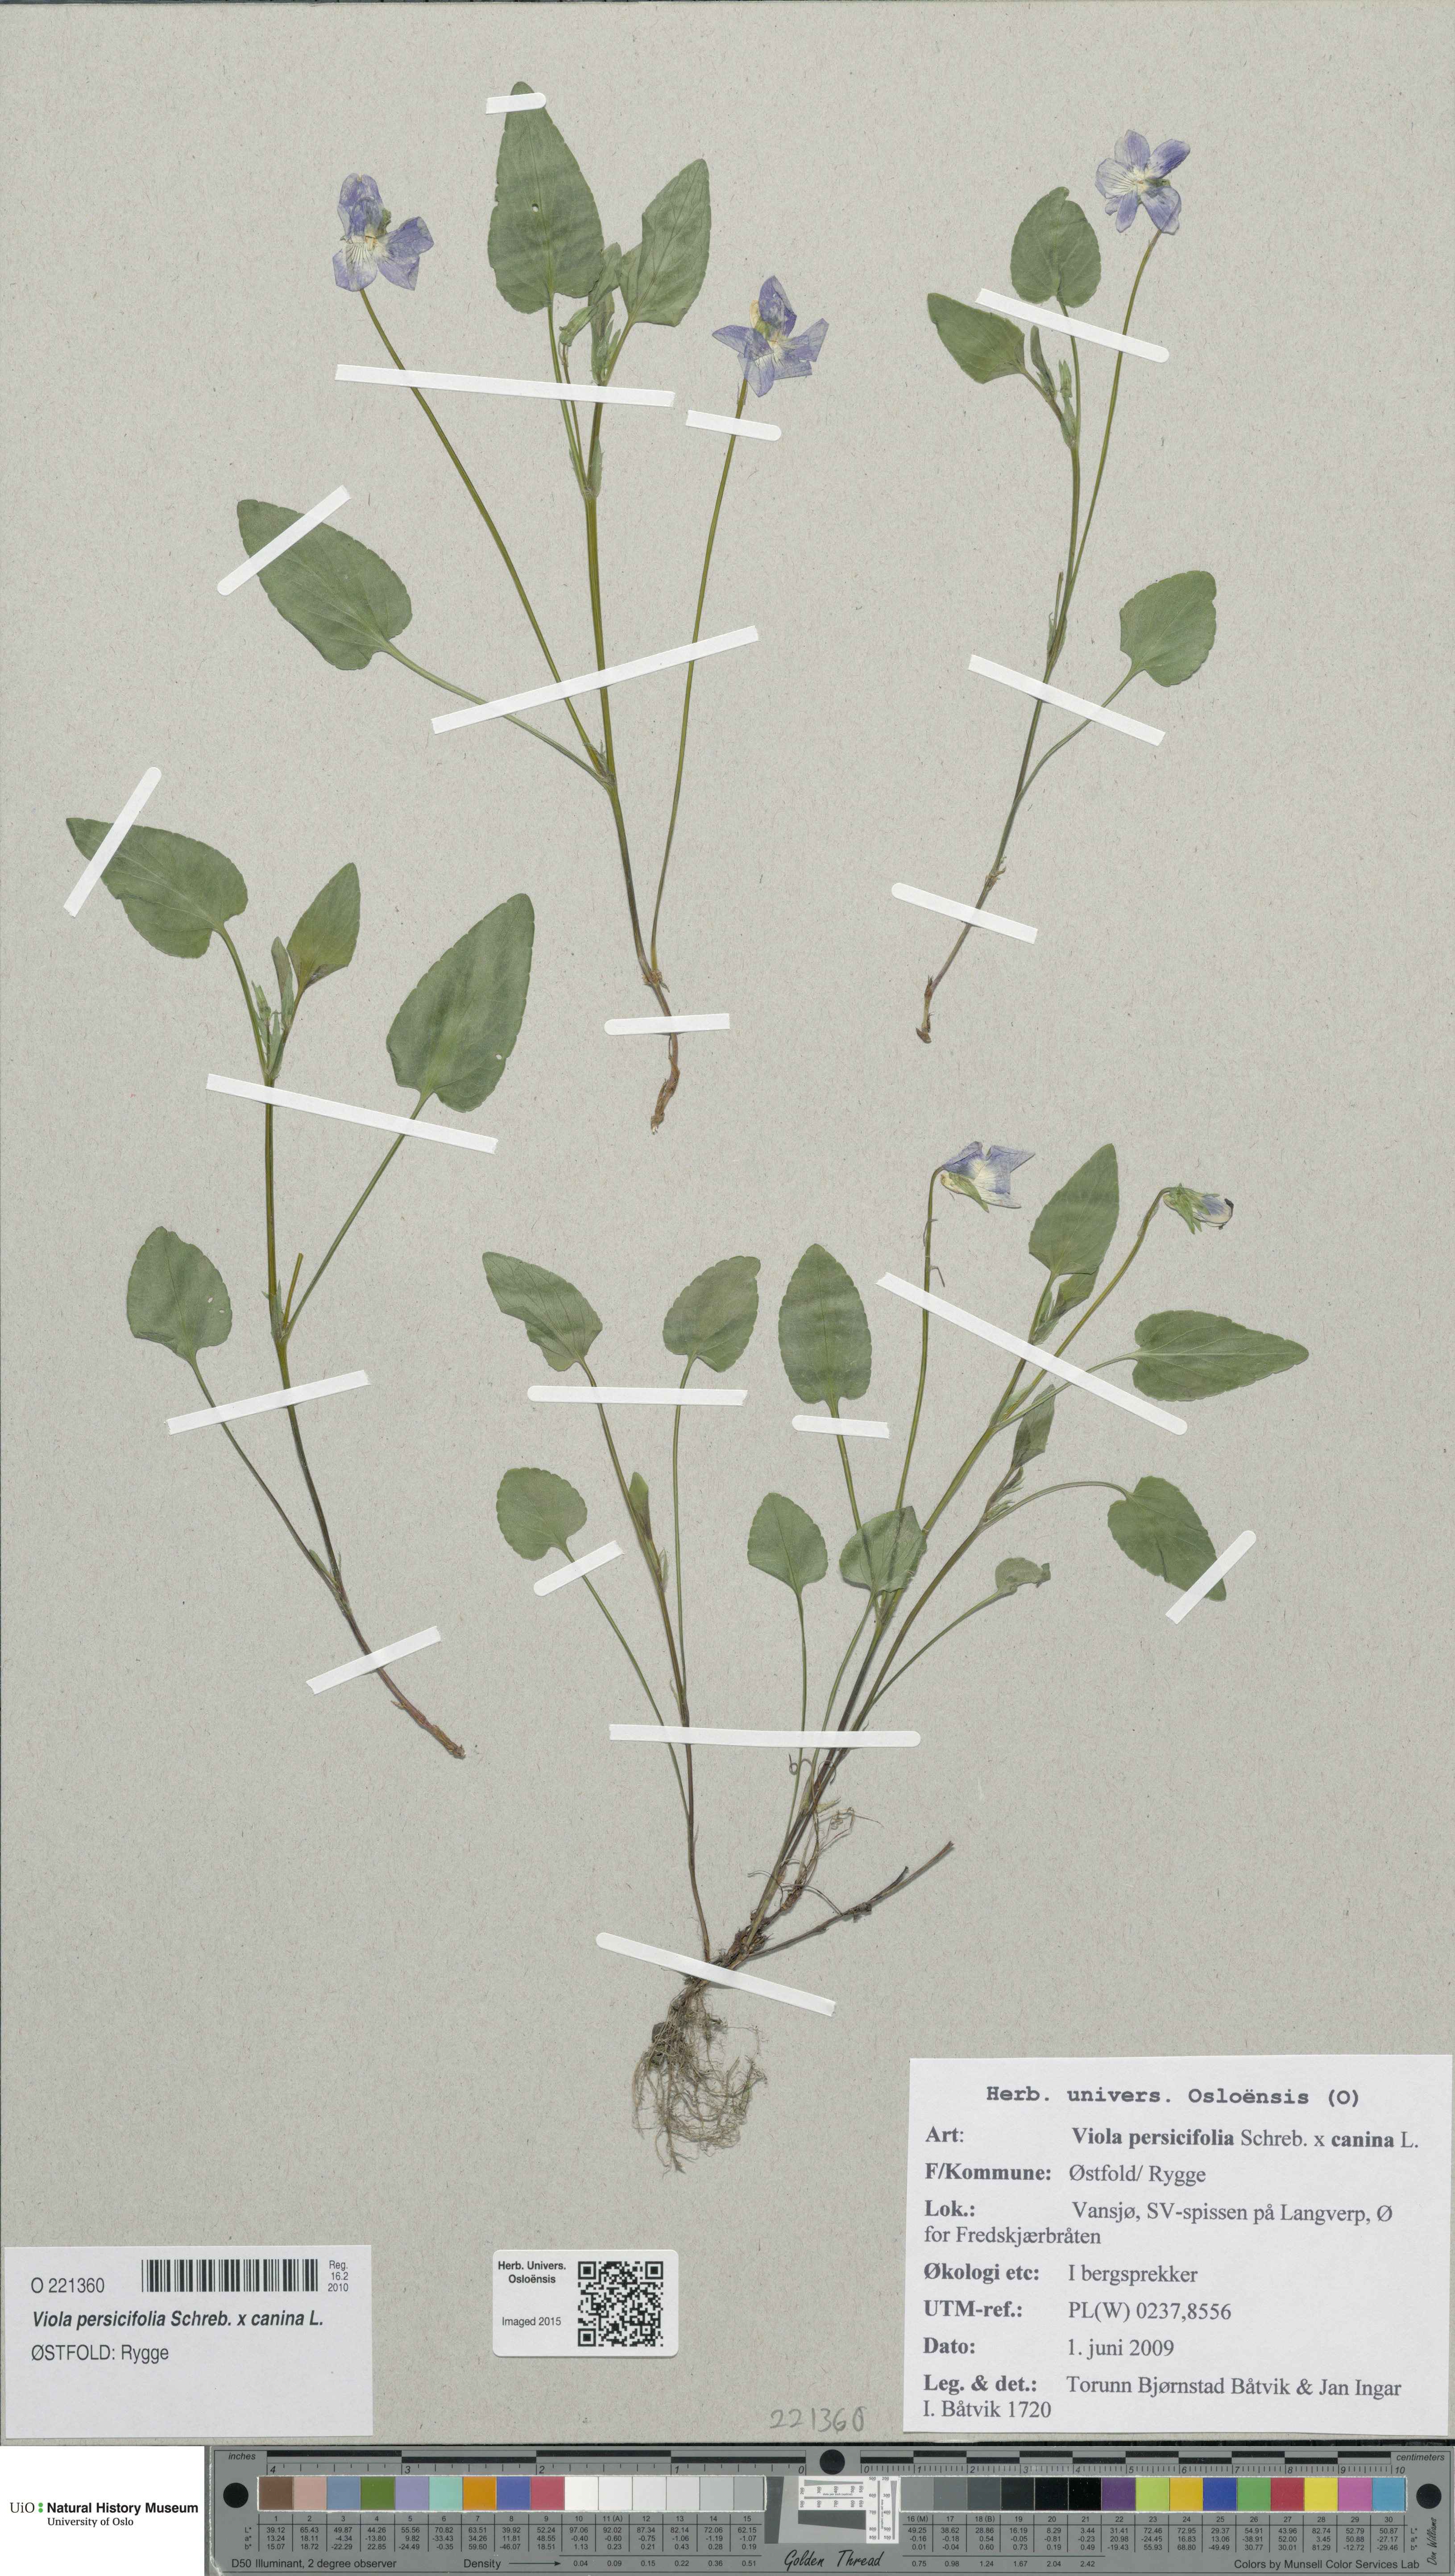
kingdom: Plantae
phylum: Tracheophyta
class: Magnoliopsida
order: Malpighiales
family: Violaceae
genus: Viola
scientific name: Viola
